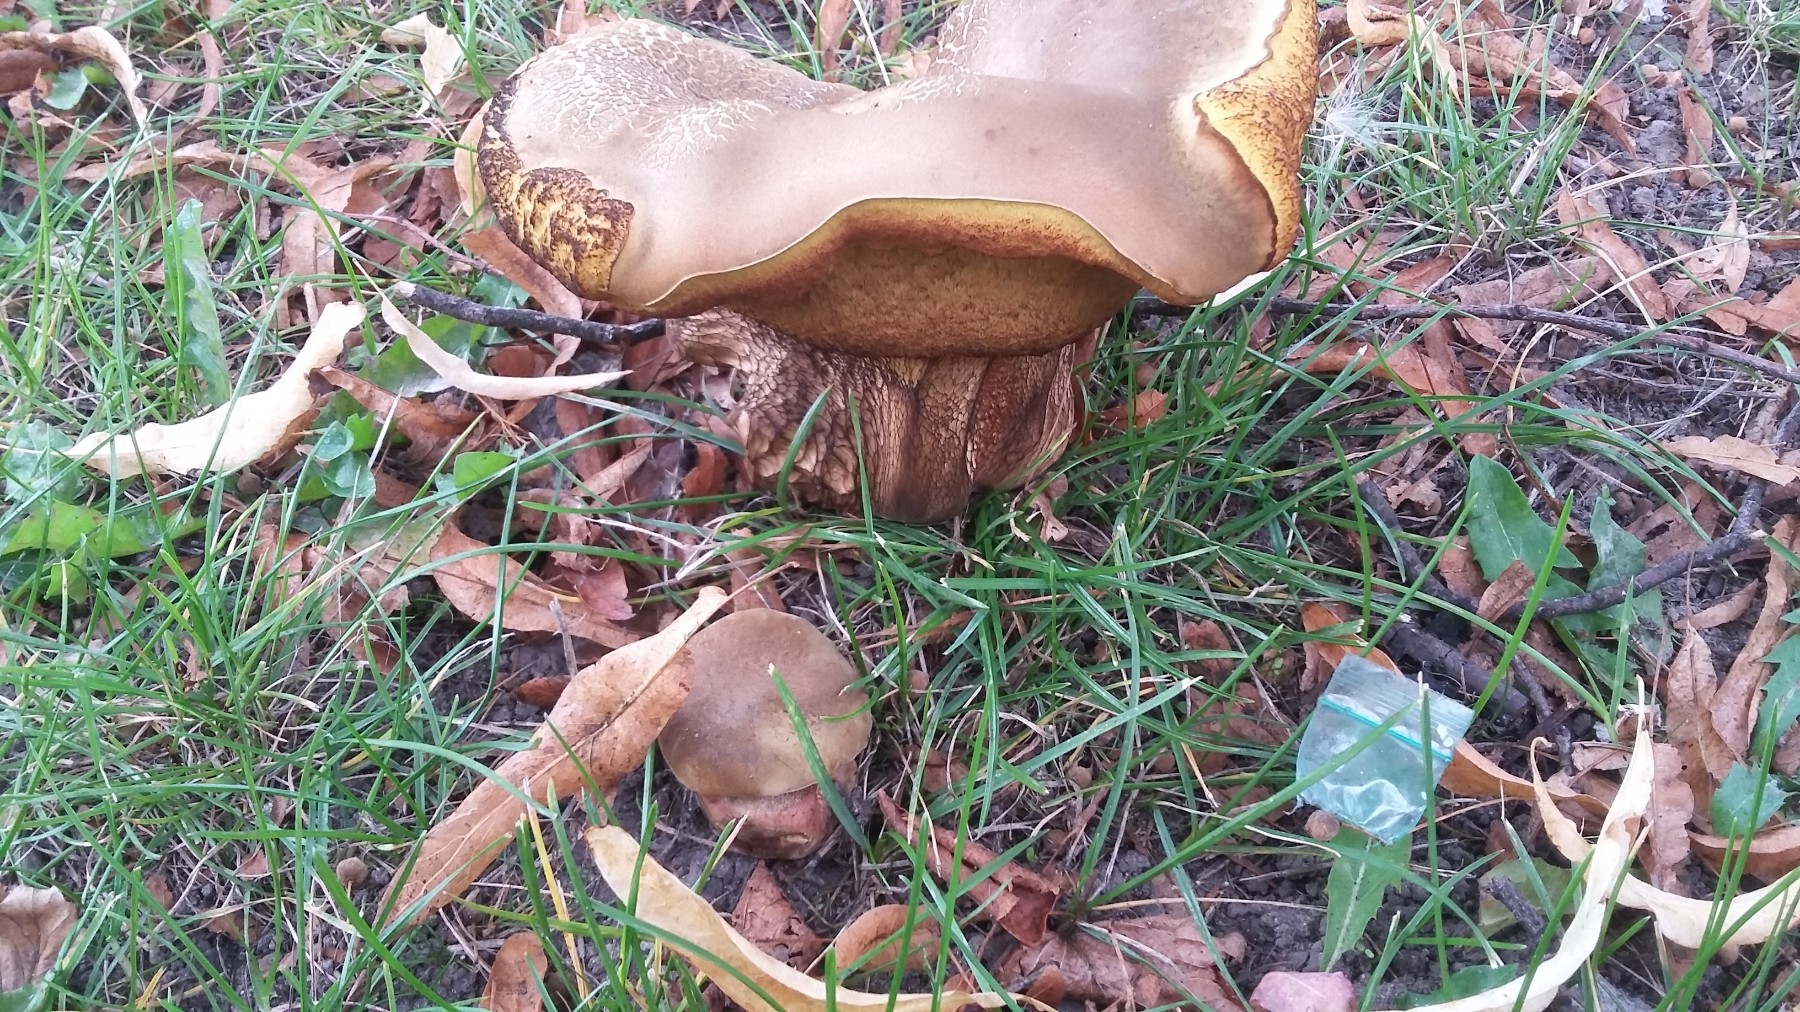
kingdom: Fungi
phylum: Basidiomycota
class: Agaricomycetes
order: Boletales
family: Boletaceae
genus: Suillellus
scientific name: Suillellus luridus
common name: netstokket indigorørhat
